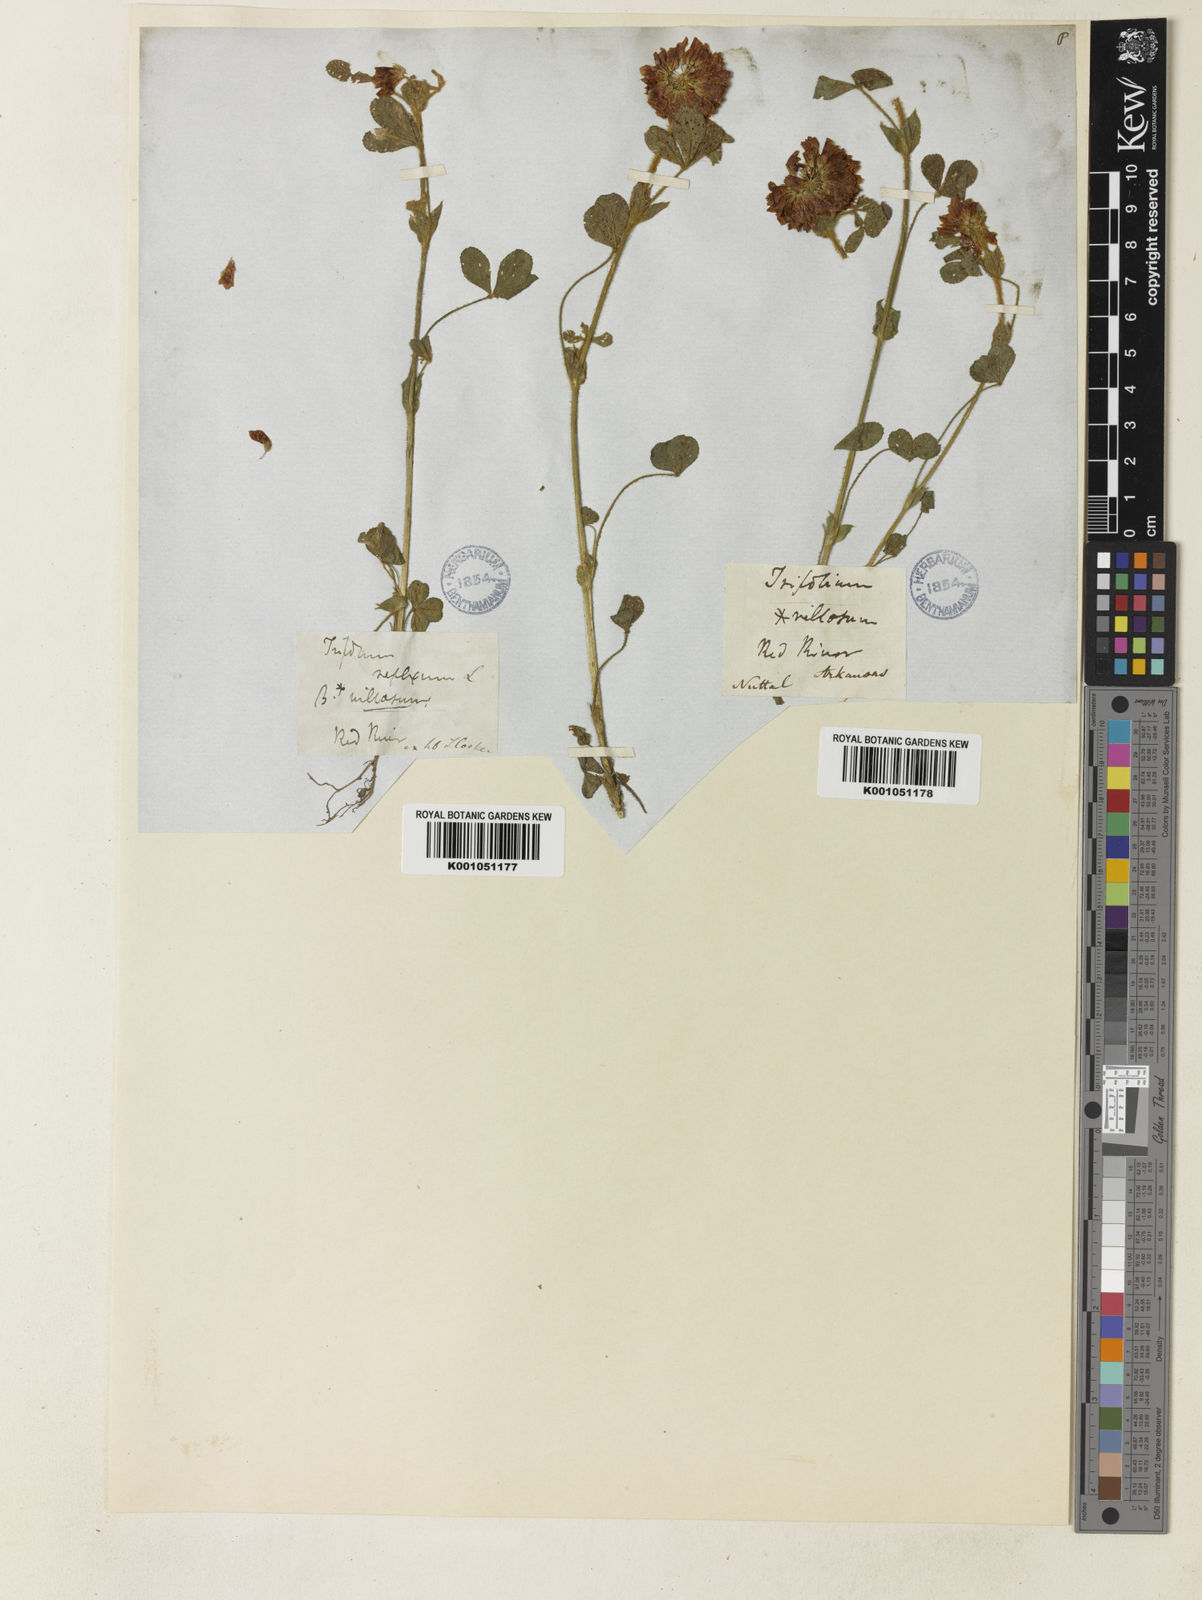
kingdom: Plantae
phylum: Tracheophyta
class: Magnoliopsida
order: Fabales
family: Fabaceae
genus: Trifolium
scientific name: Trifolium reflexum
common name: Buffalo clover
